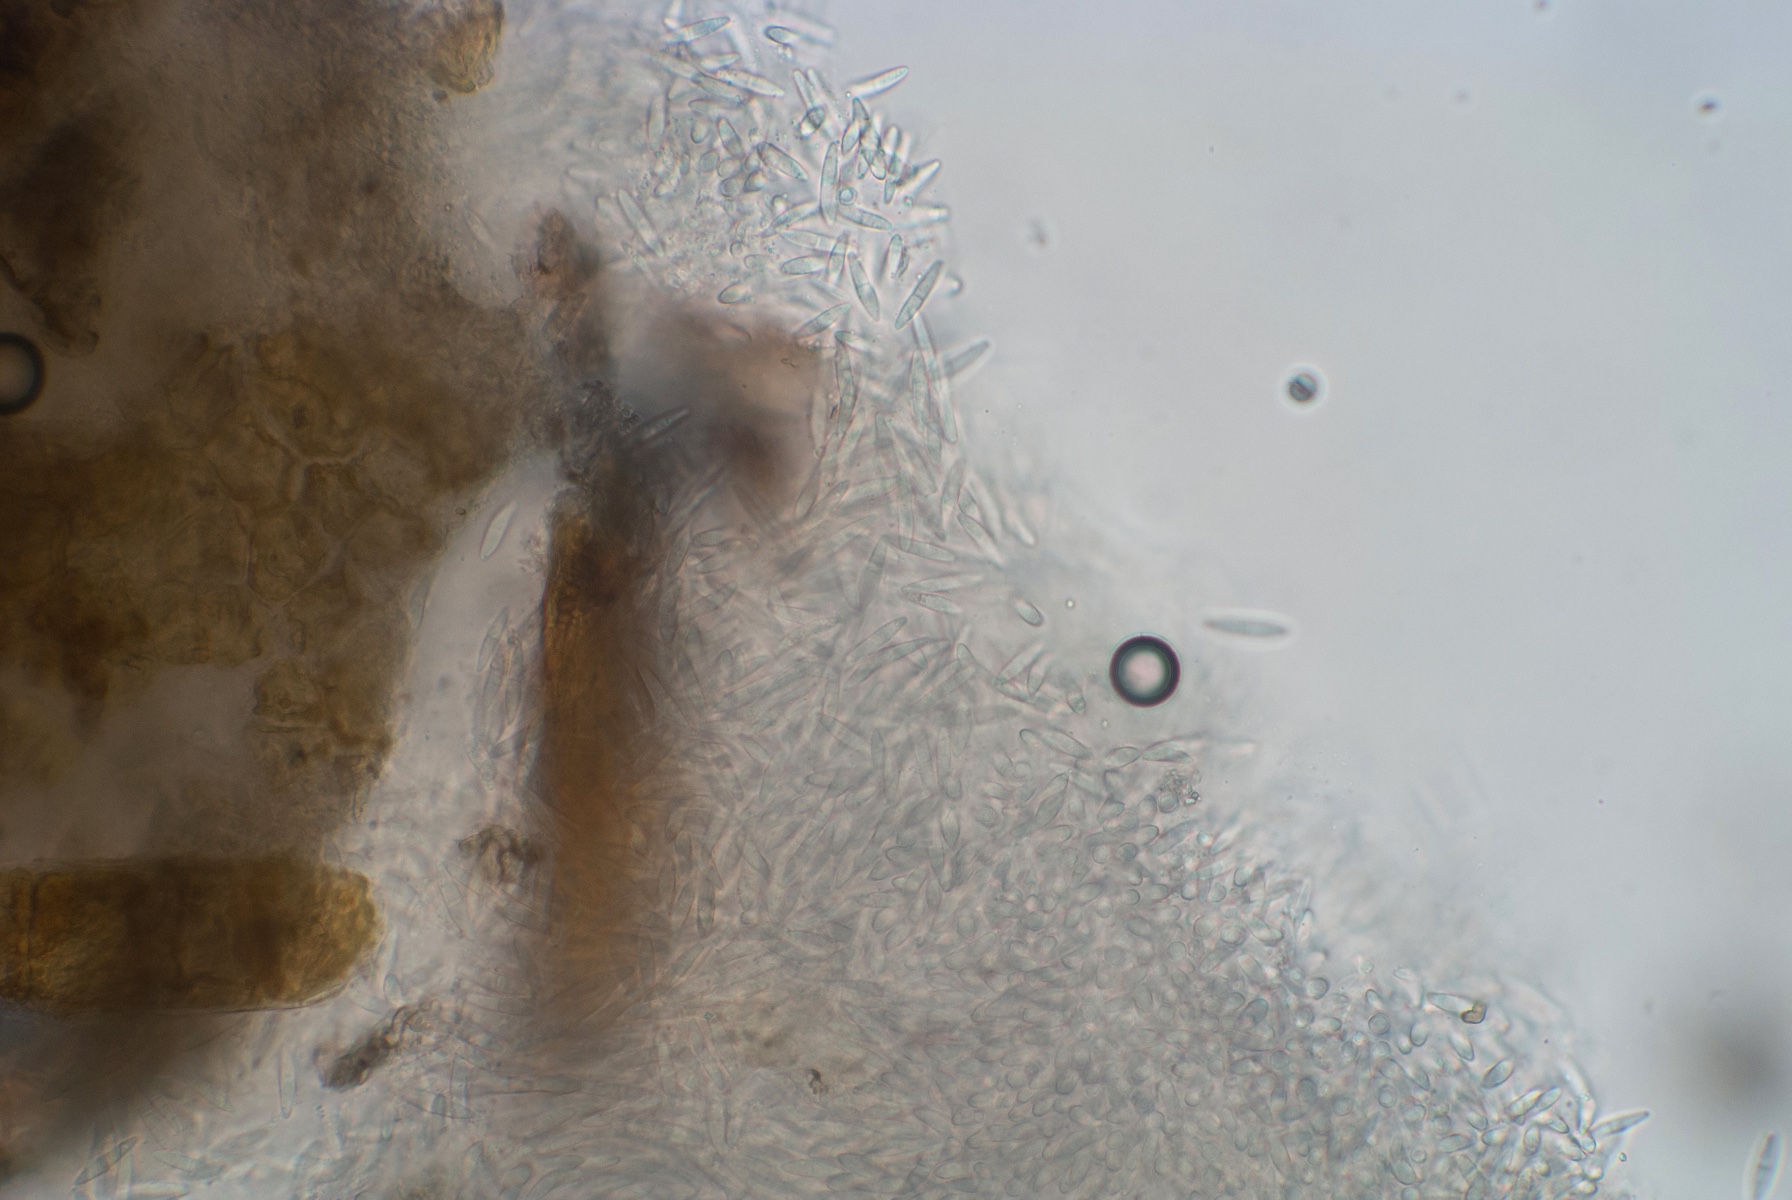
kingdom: Fungi
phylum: Ascomycota
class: Sordariomycetes
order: Diaporthales
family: Gnomoniaceae
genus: Plagiostoma
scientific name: Plagiostoma aesculi
